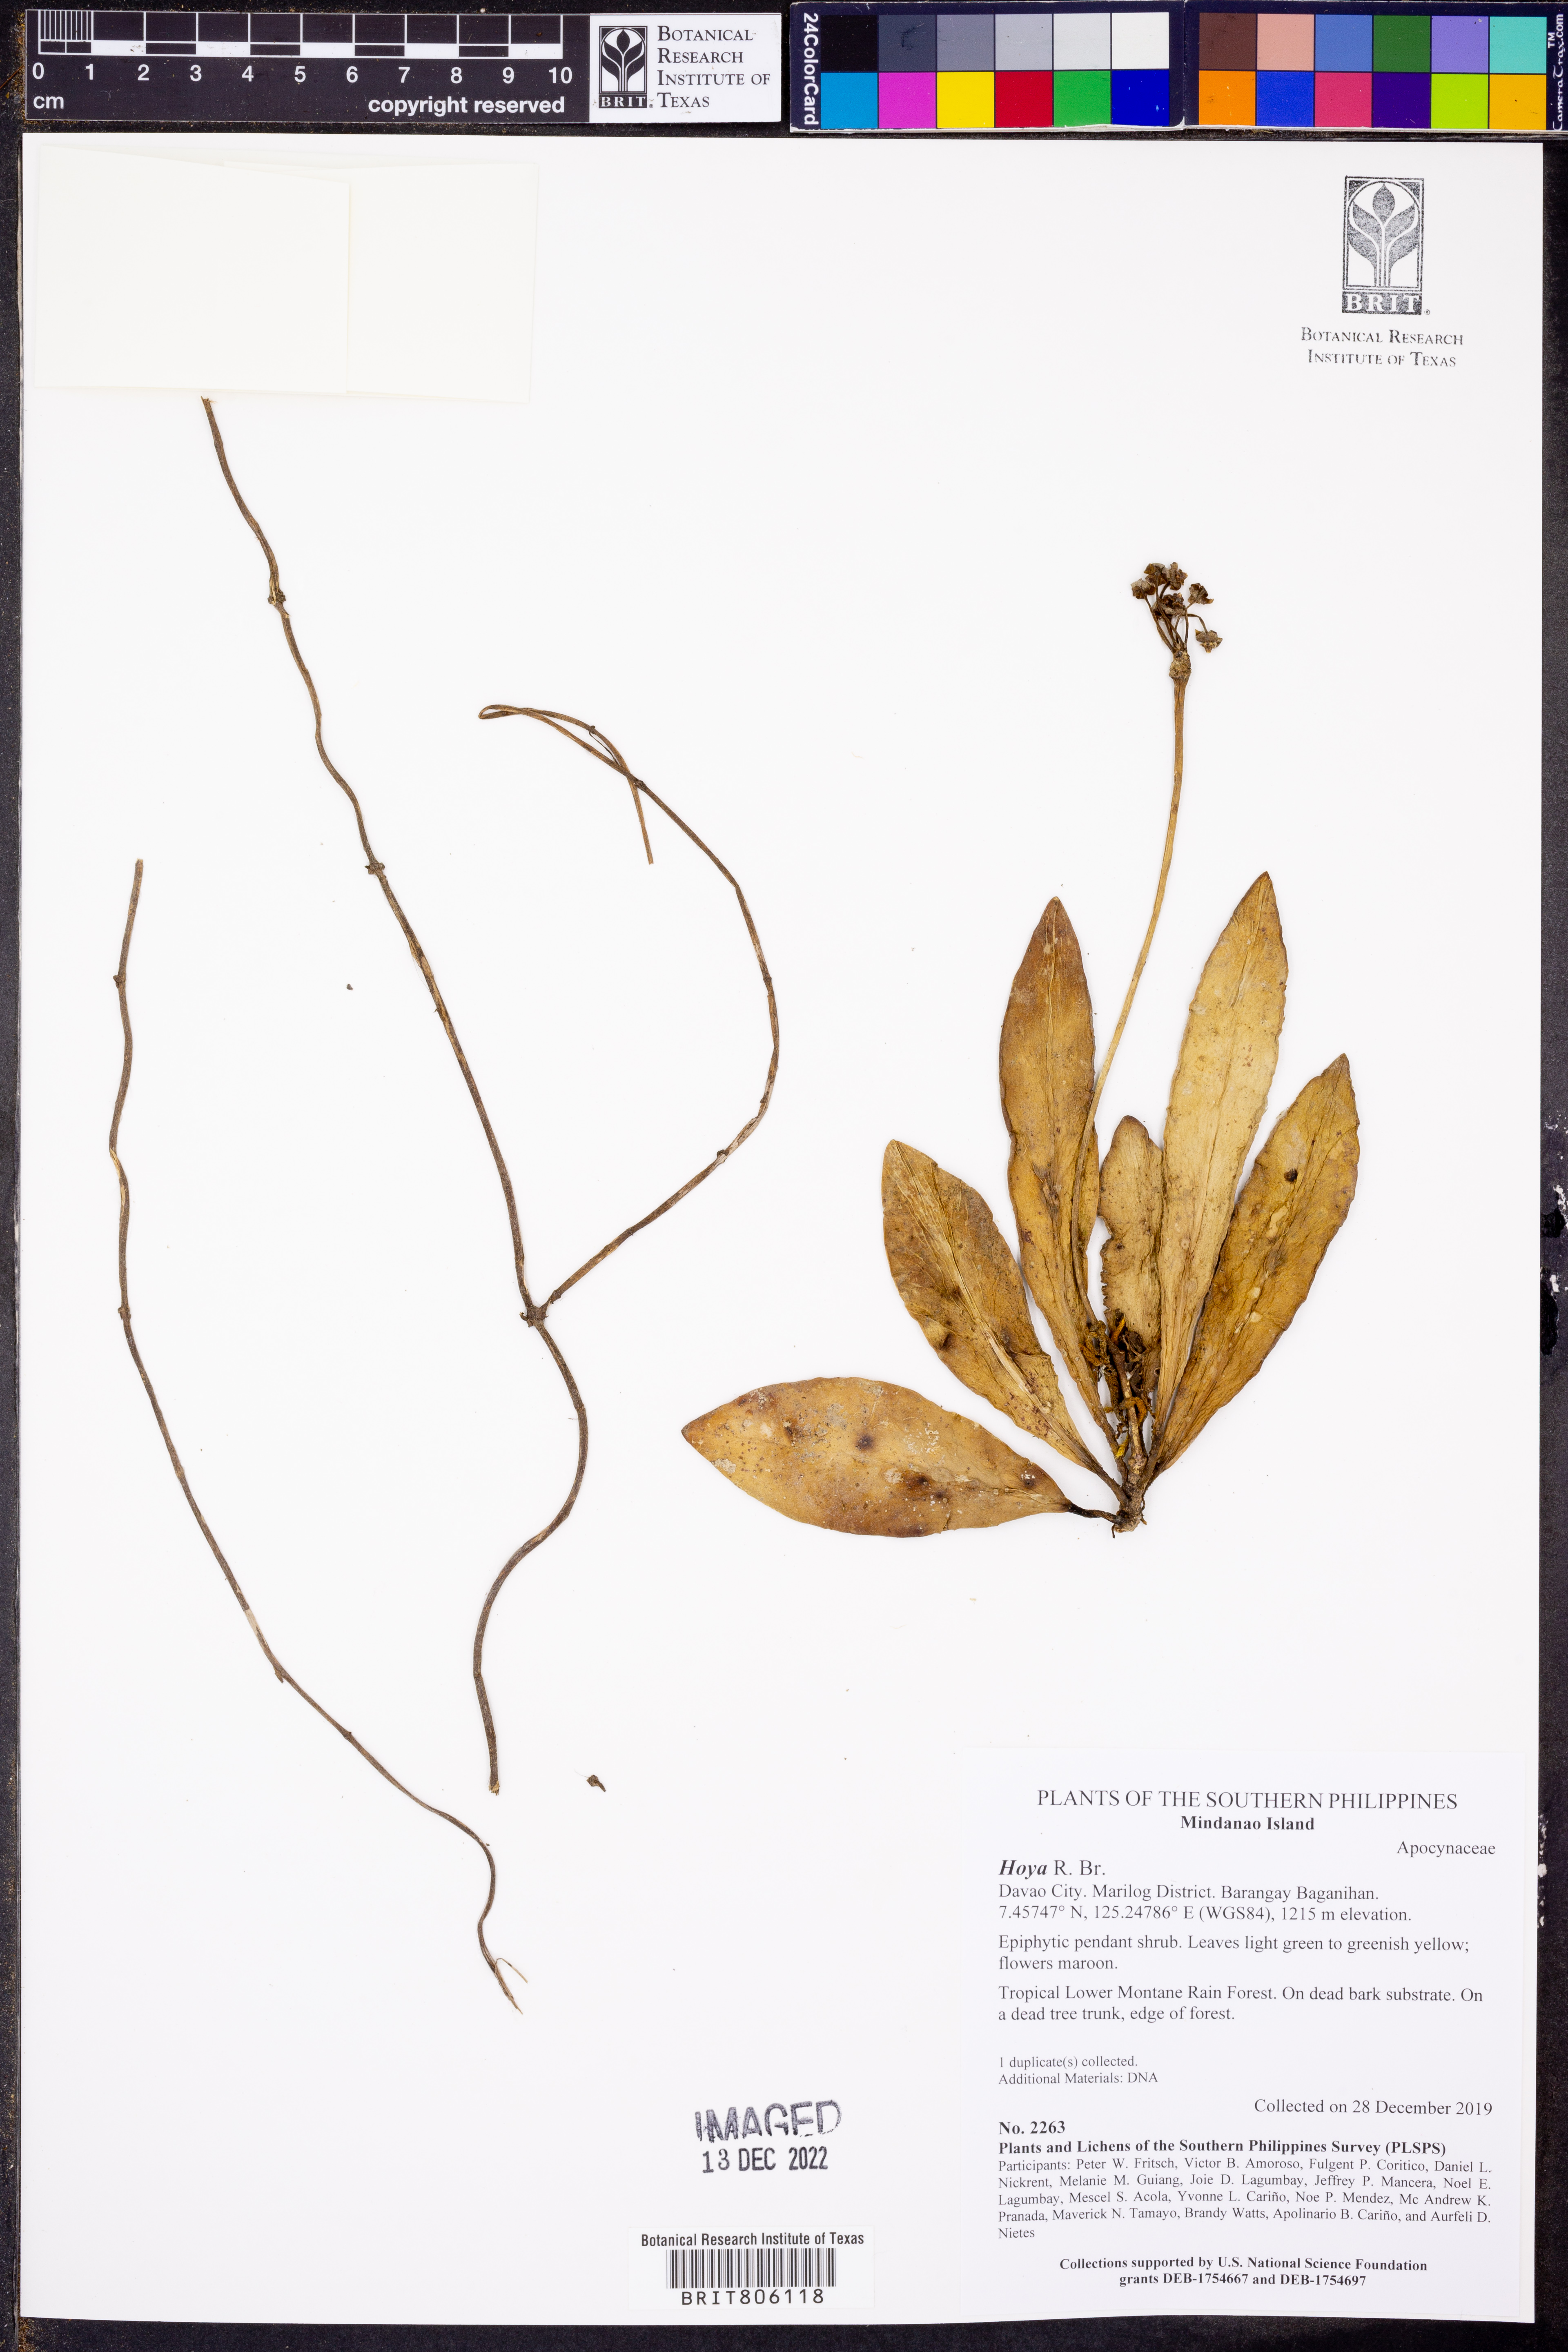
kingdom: Plantae
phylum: Tracheophyta
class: Magnoliopsida
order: Gentianales
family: Apocynaceae
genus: Hoya
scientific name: Hoya
